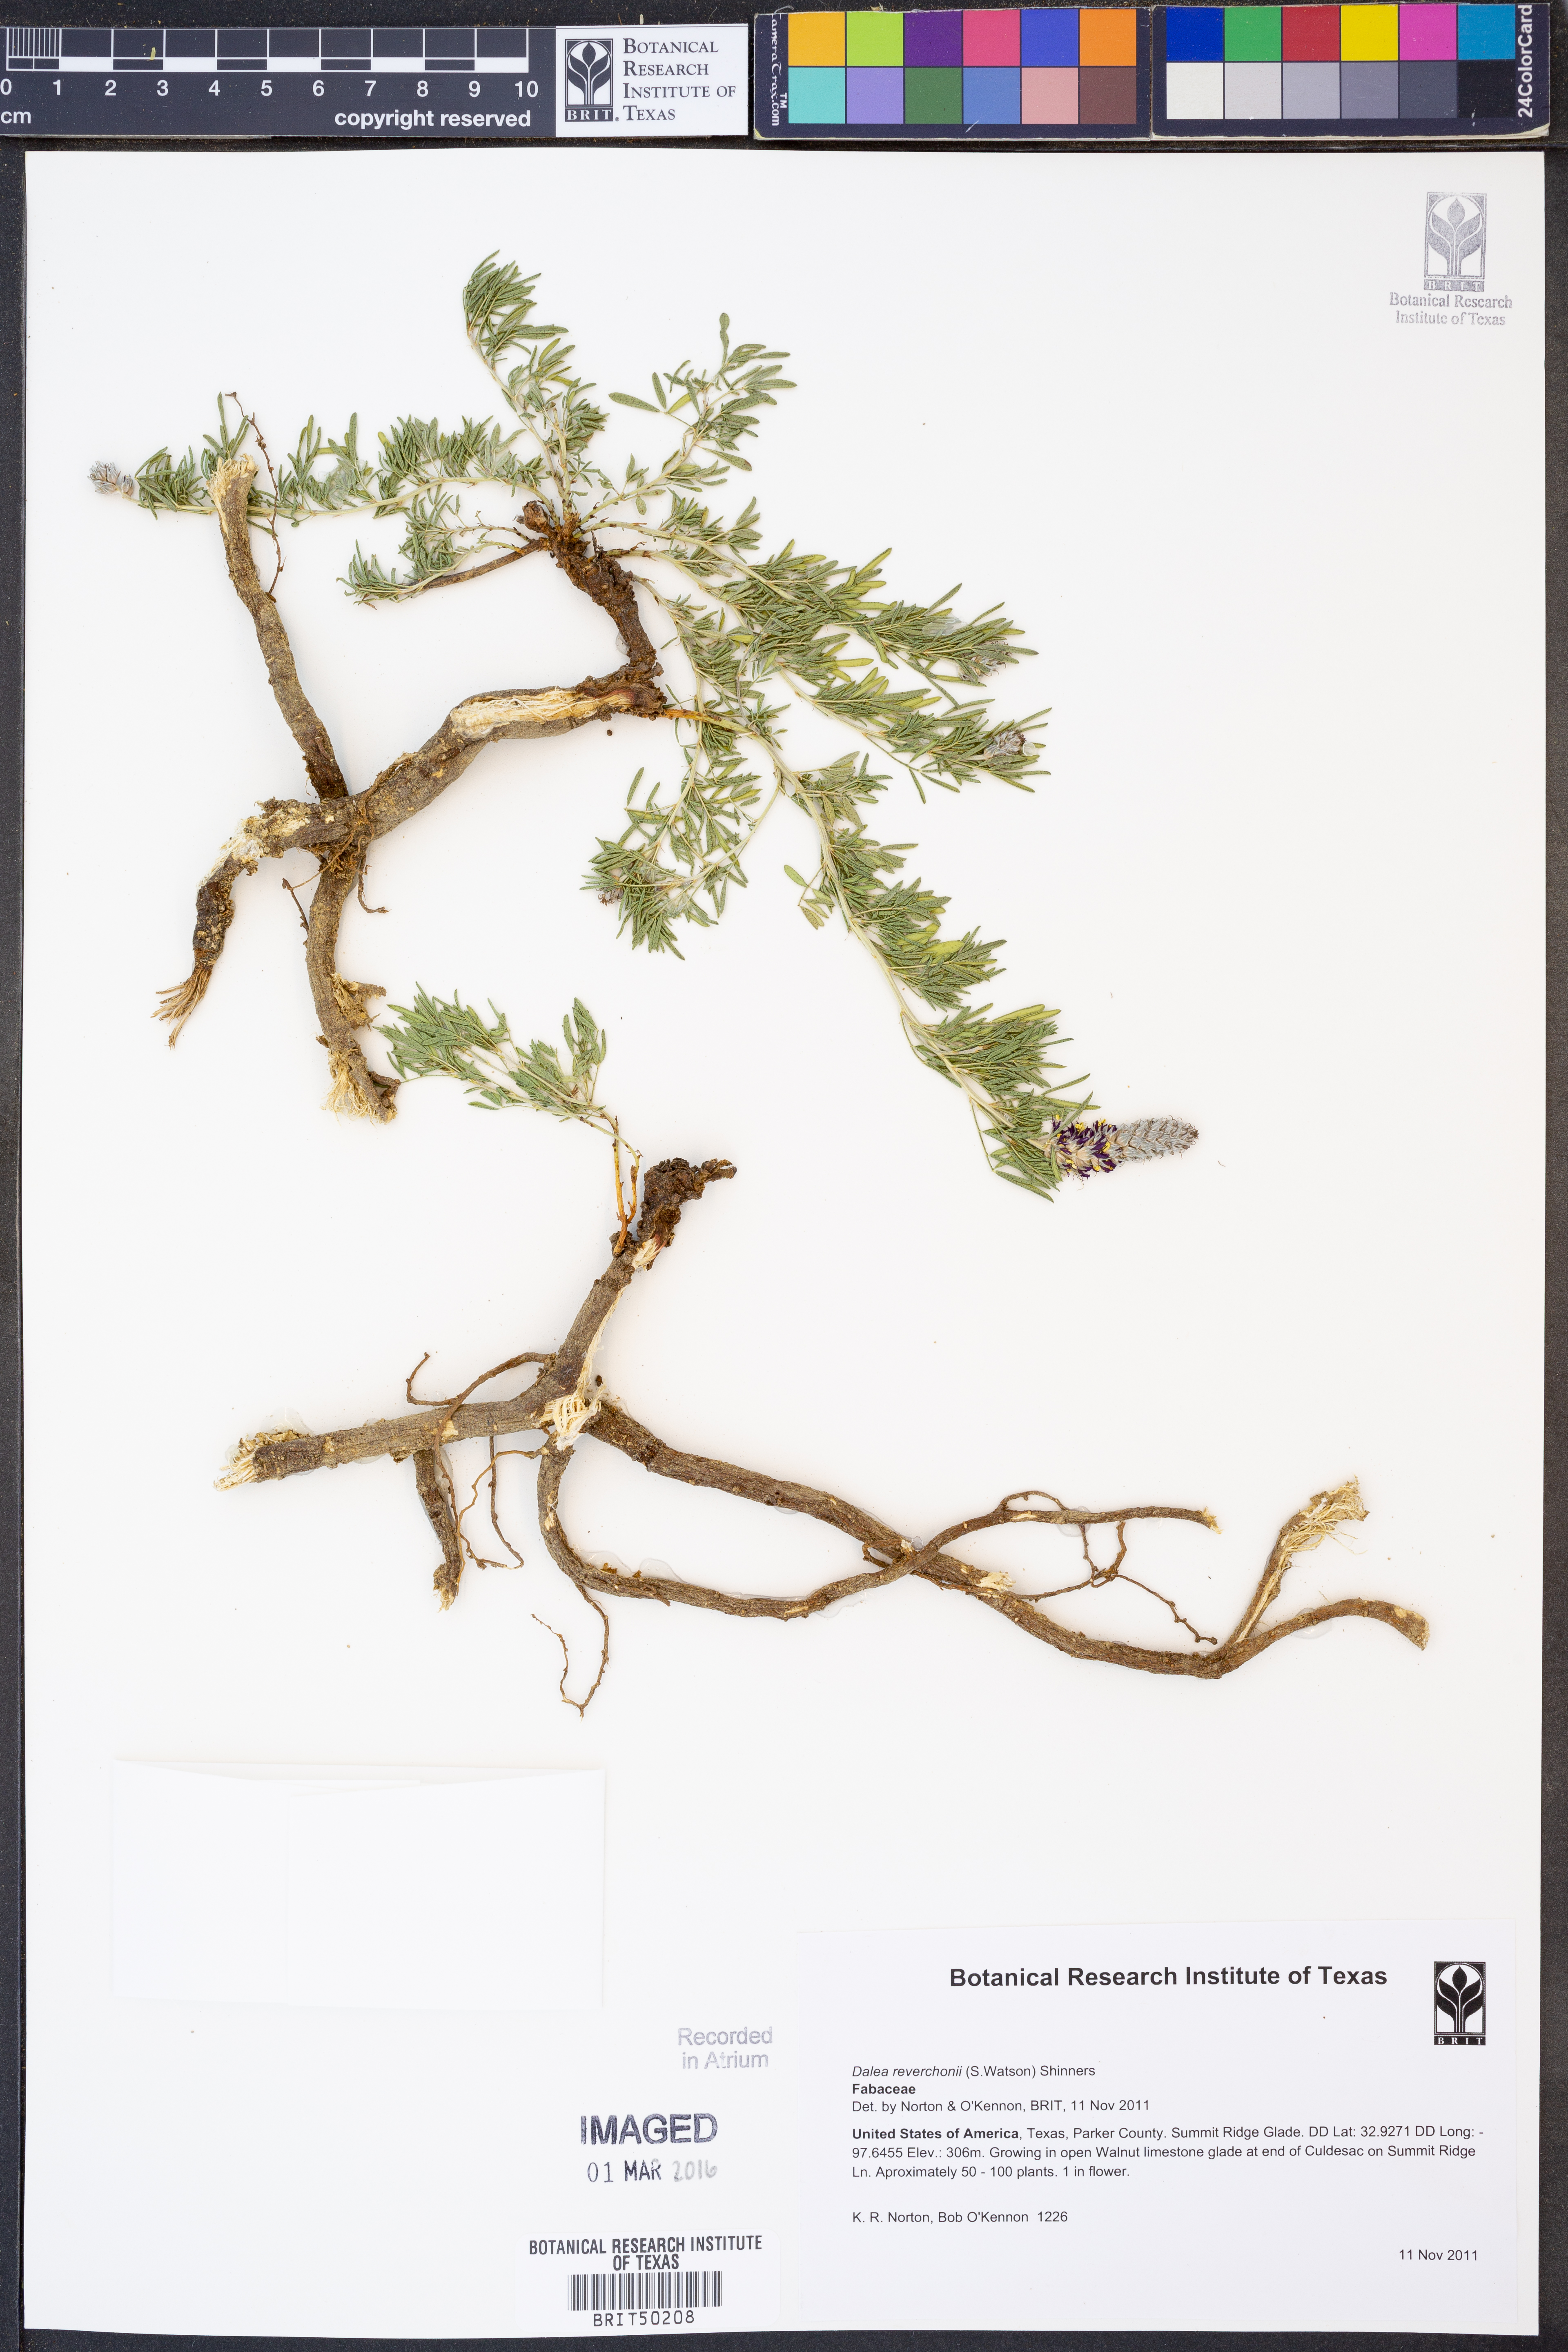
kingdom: Plantae
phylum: Tracheophyta
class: Magnoliopsida
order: Fabales
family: Fabaceae
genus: Dalea
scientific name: Dalea reverchonii
